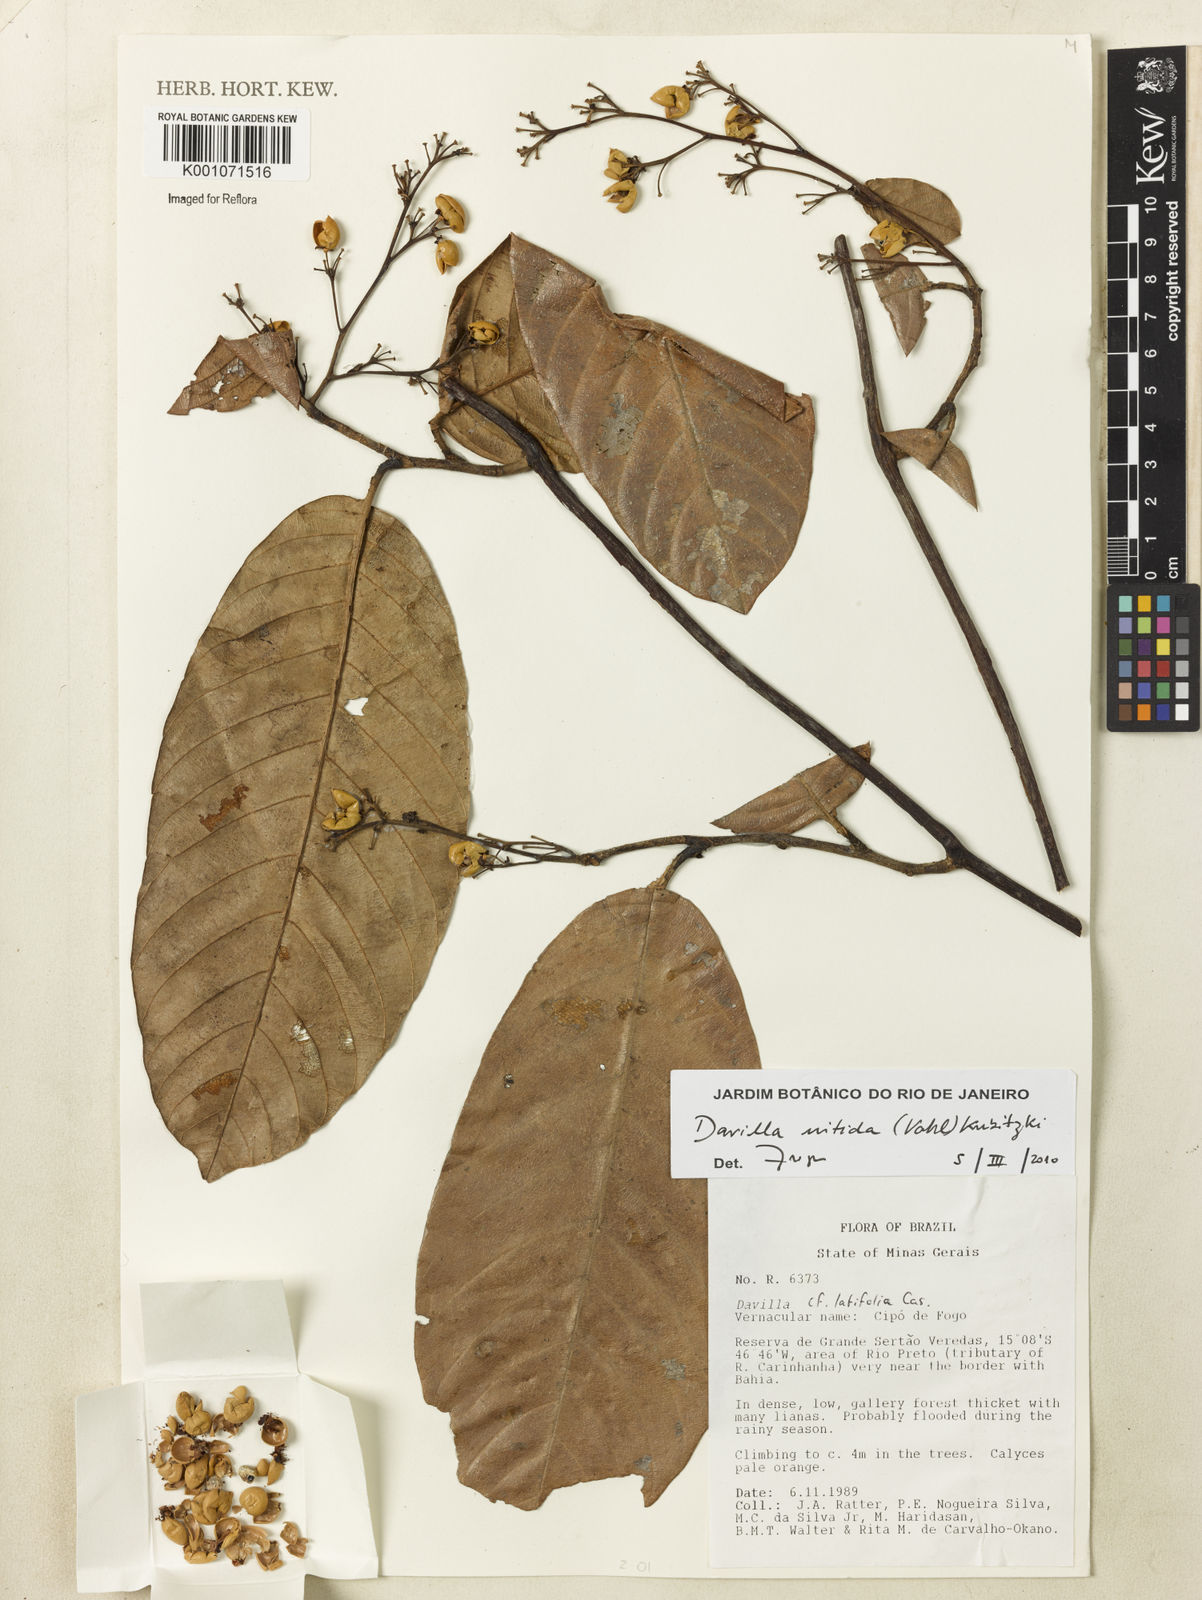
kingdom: Plantae
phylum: Tracheophyta
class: Magnoliopsida
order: Dilleniales
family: Dilleniaceae
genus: Davilla
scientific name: Davilla nitida
